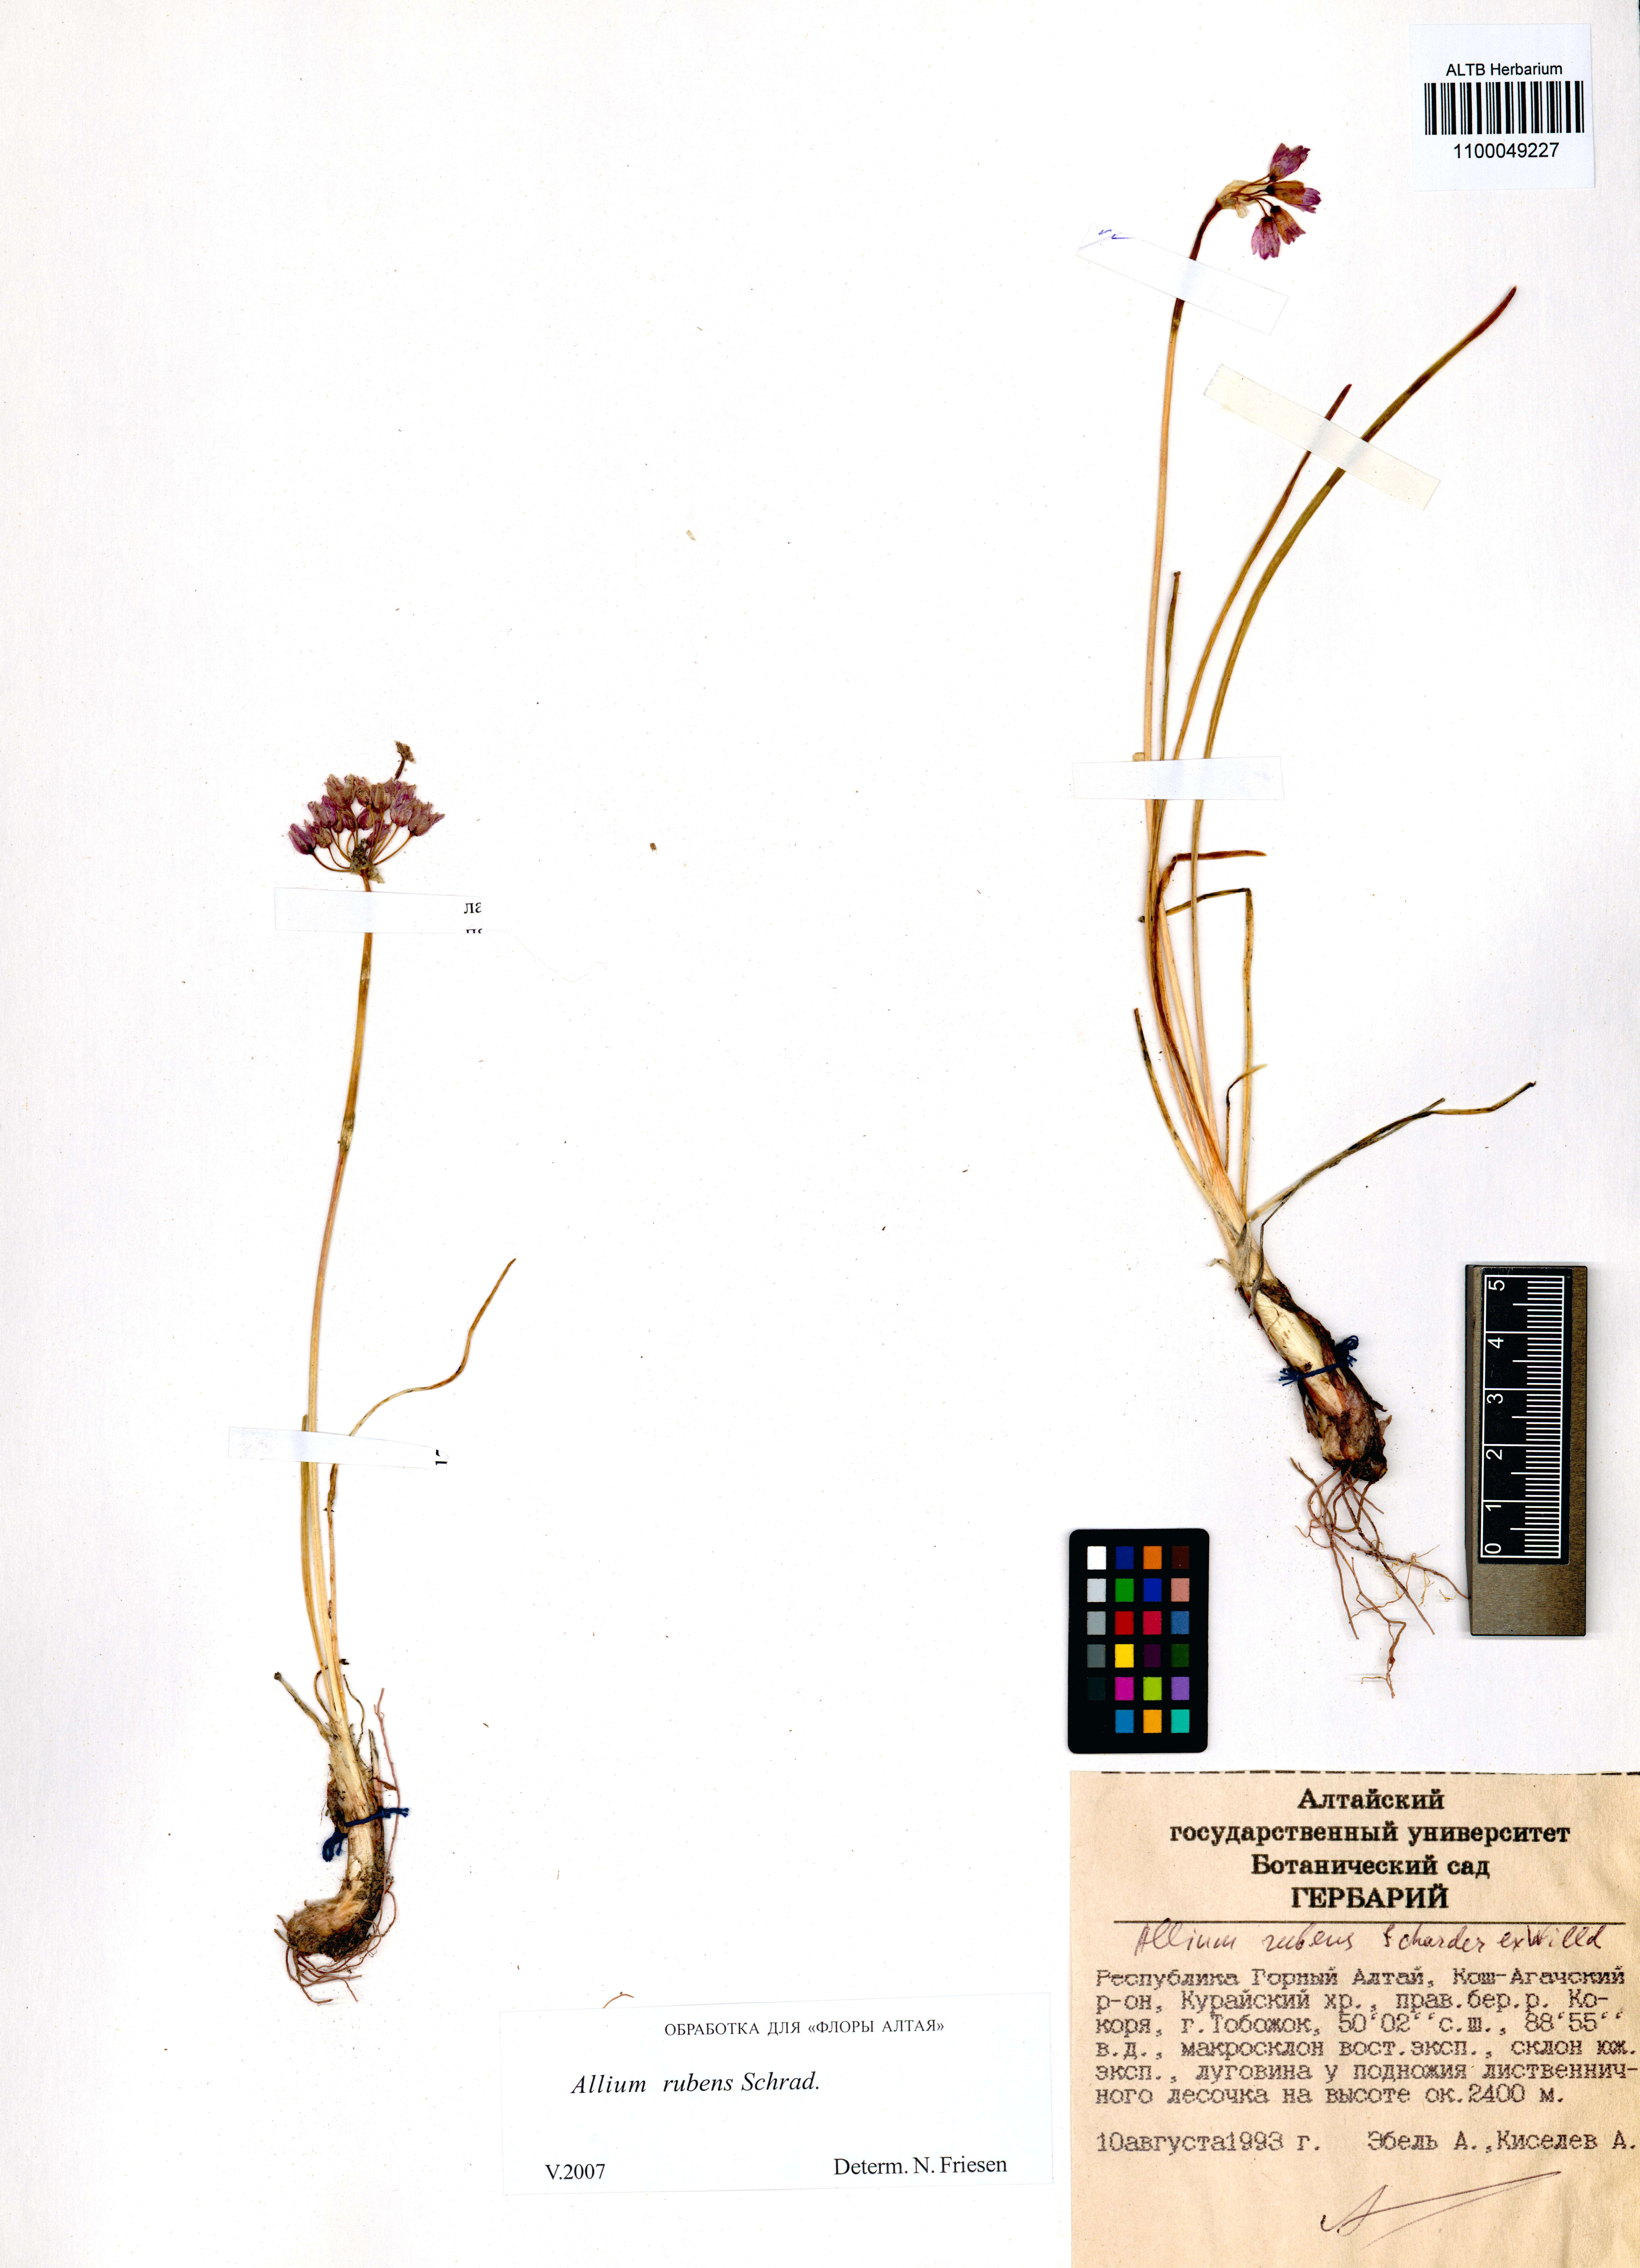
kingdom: Plantae
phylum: Tracheophyta
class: Liliopsida
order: Asparagales
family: Amaryllidaceae
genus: Allium
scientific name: Allium rubens
